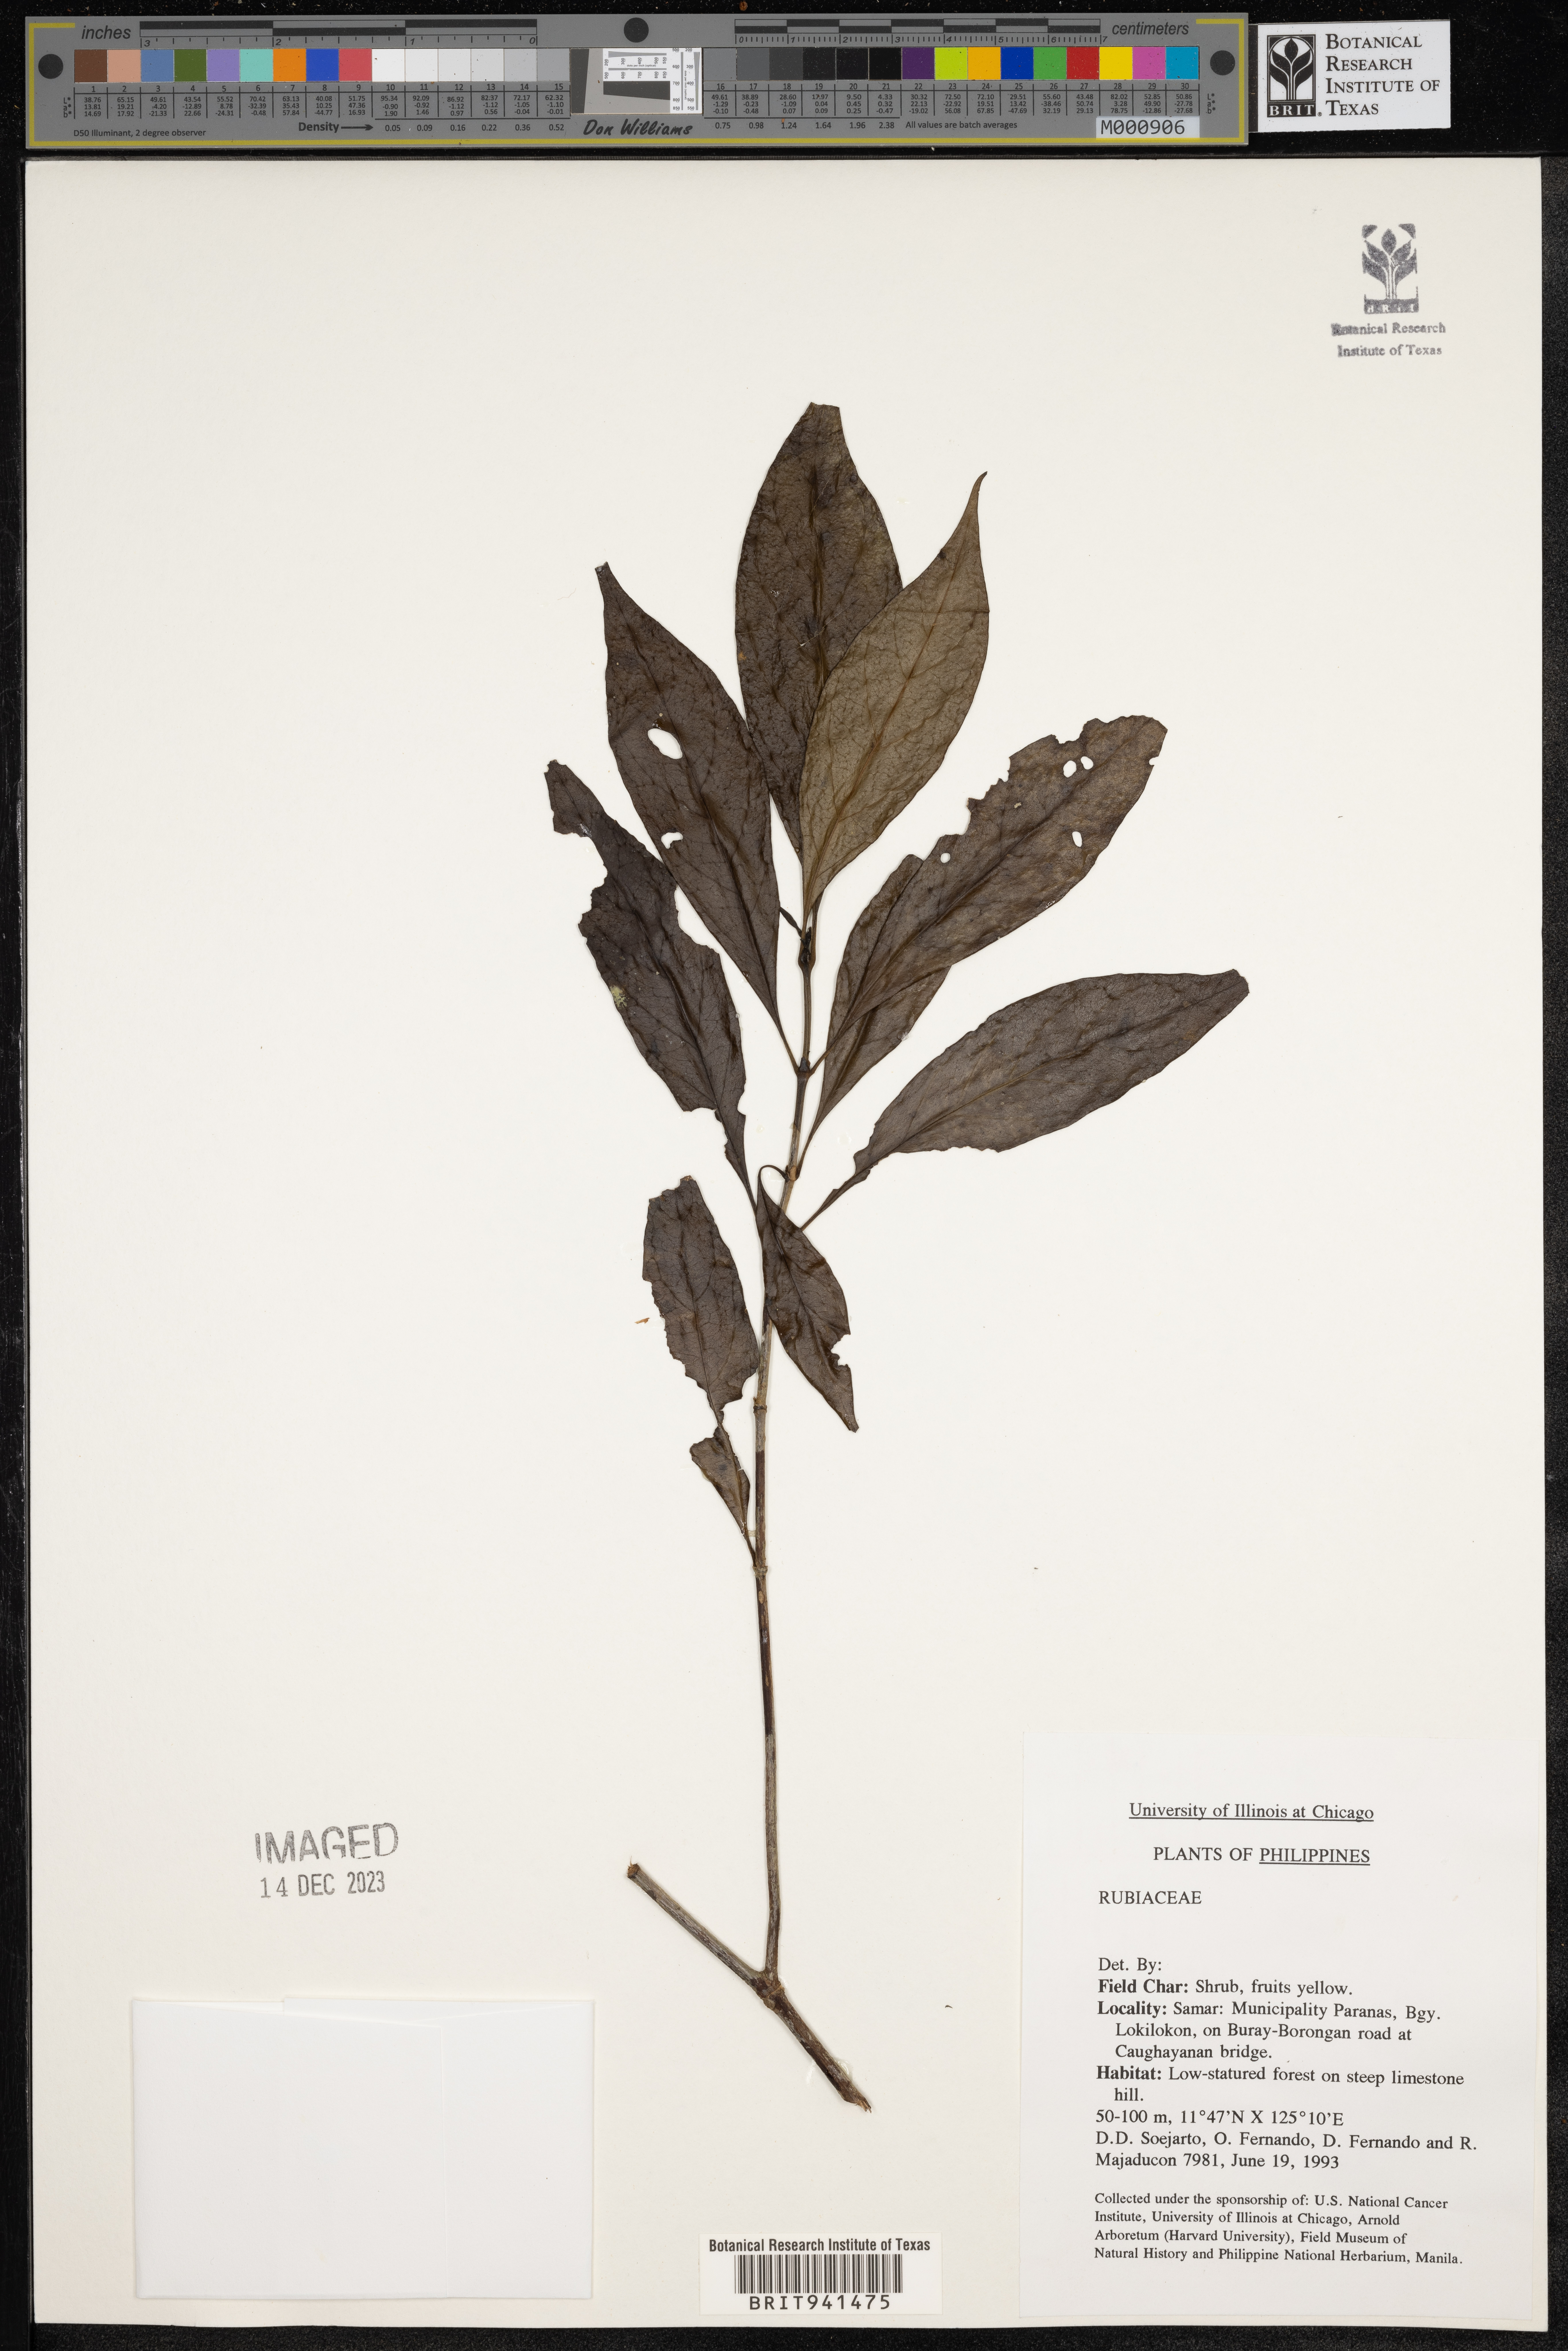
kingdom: Plantae
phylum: Tracheophyta
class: Magnoliopsida
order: Gentianales
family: Rubiaceae
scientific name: Rubiaceae
